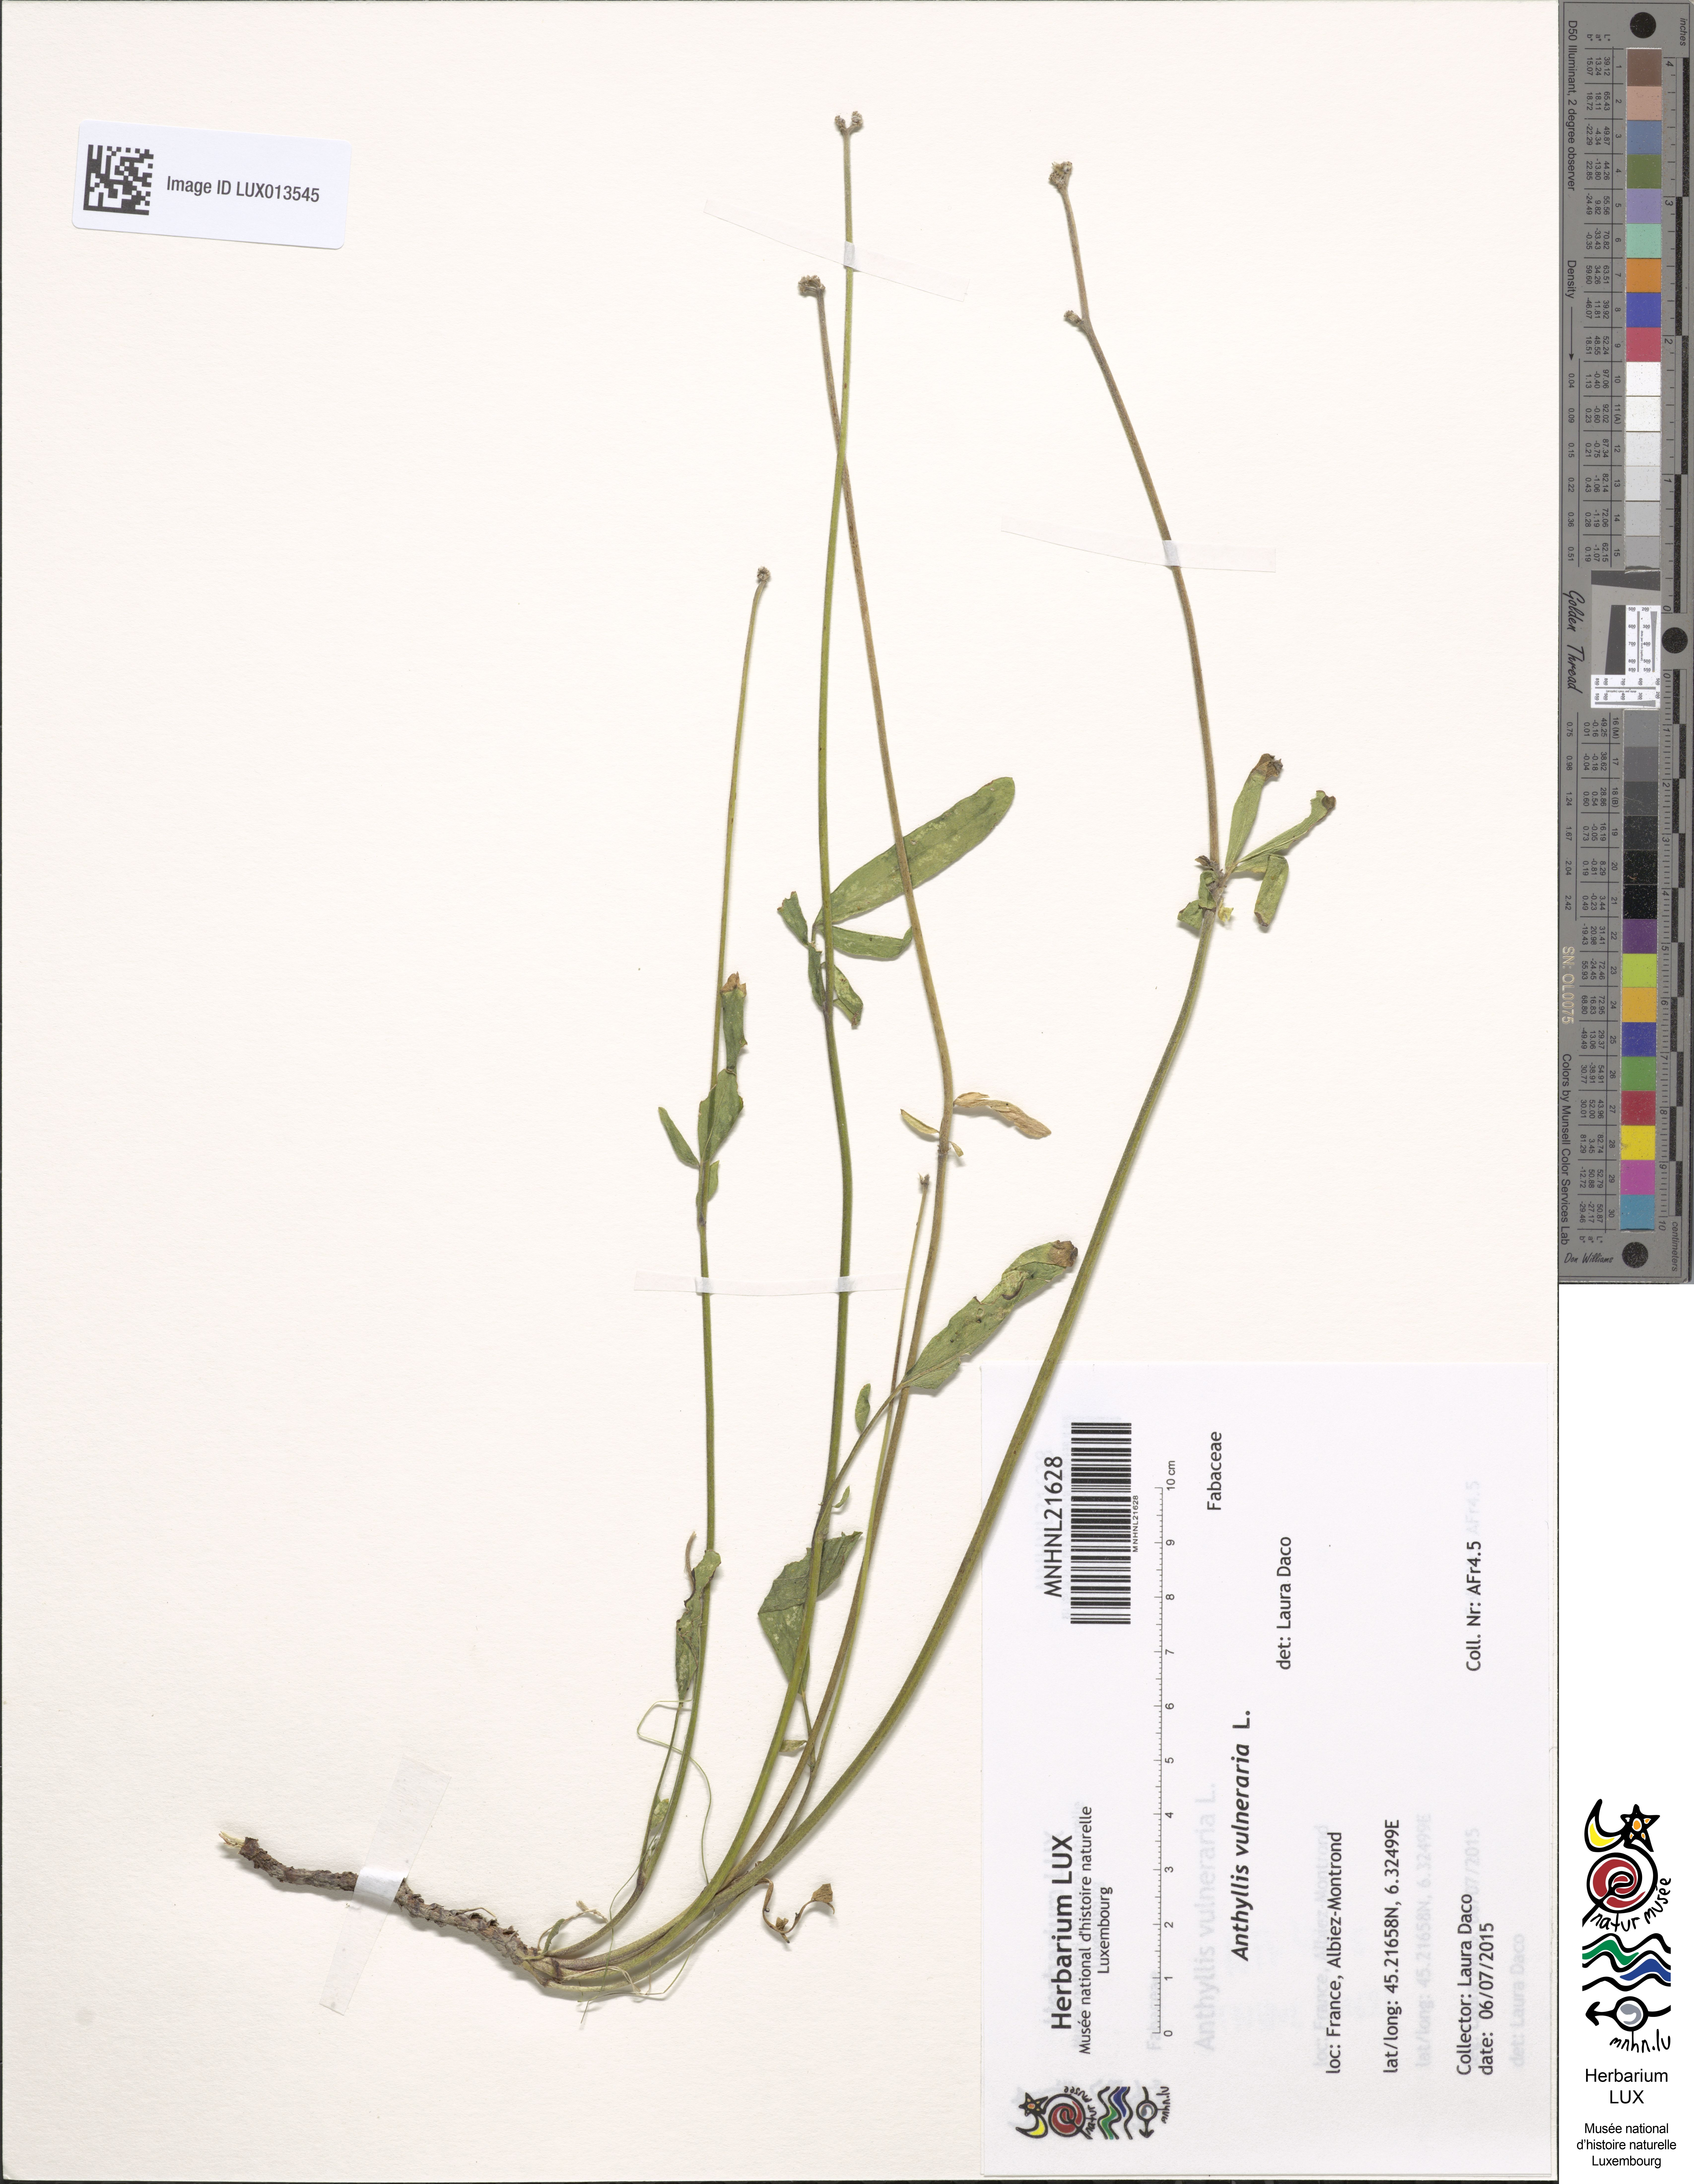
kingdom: Plantae
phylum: Tracheophyta
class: Magnoliopsida
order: Fabales
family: Fabaceae
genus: Anthyllis
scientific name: Anthyllis vulneraria
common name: Kidney vetch
